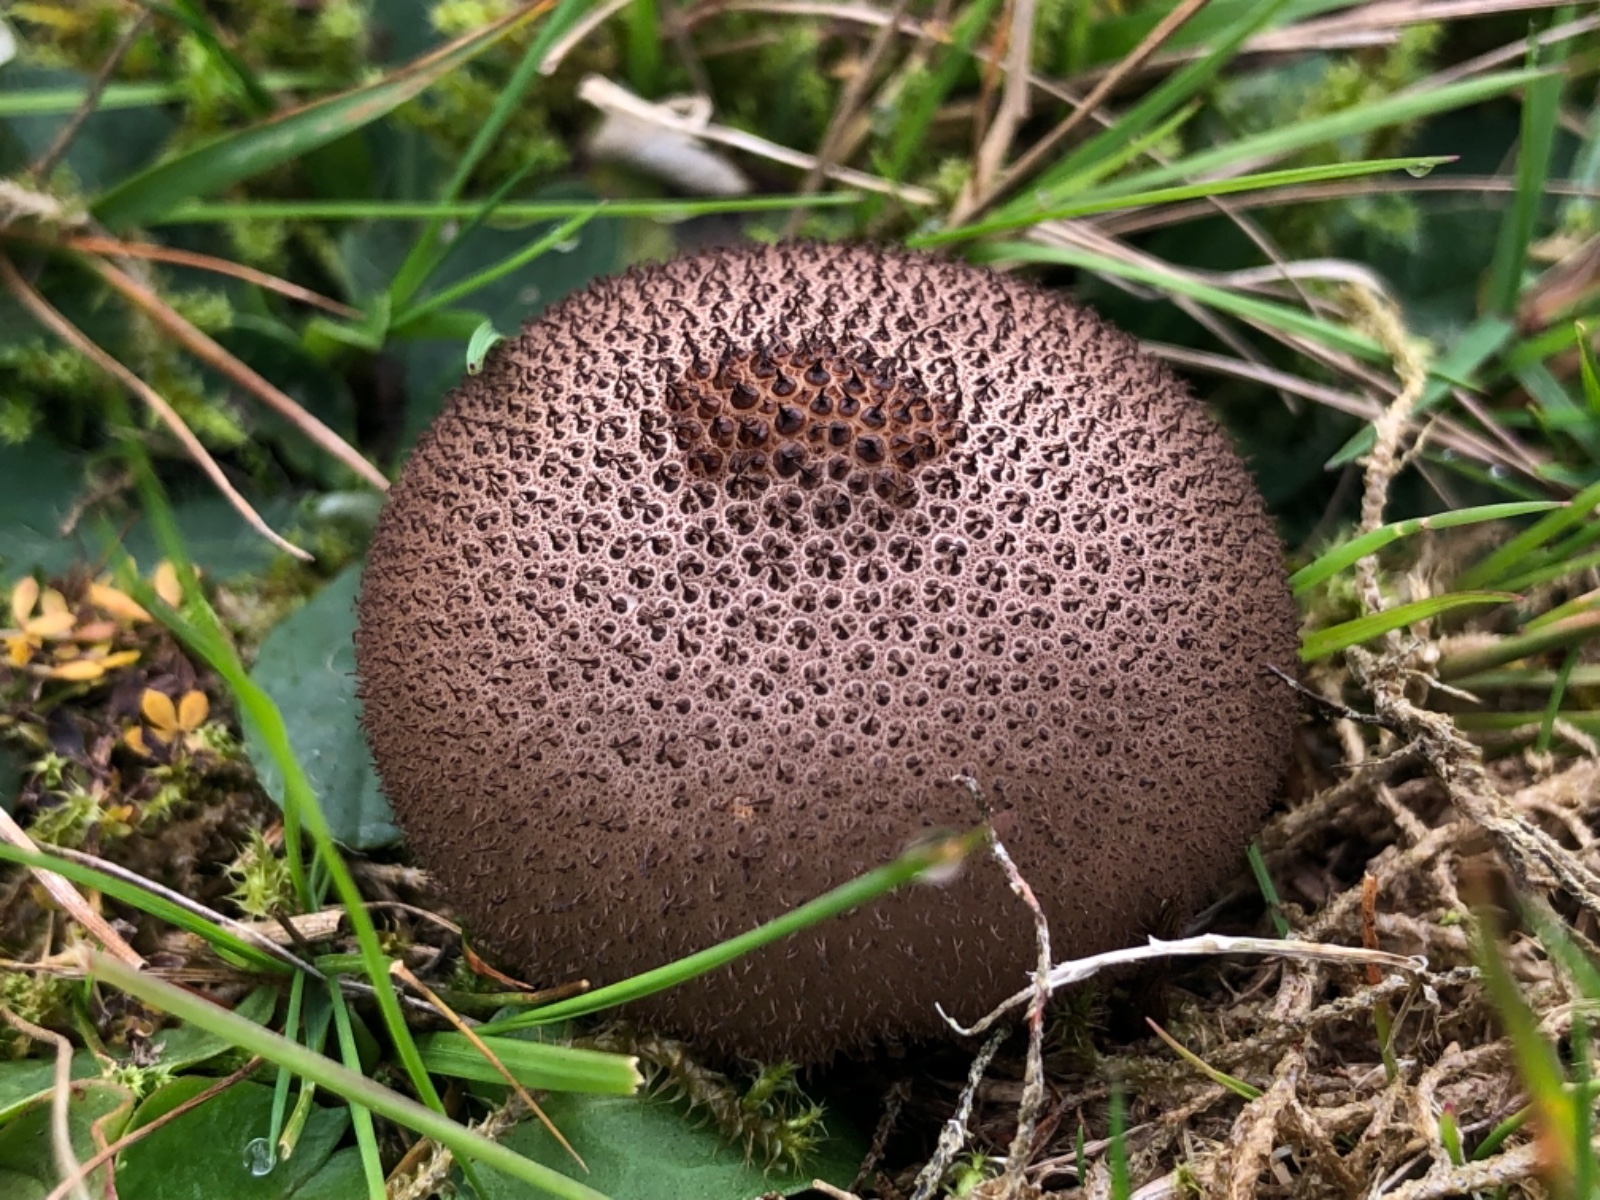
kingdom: Fungi
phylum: Basidiomycota
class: Agaricomycetes
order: Agaricales
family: Lycoperdaceae
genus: Lycoperdon
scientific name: Lycoperdon nigrescens
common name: sortagtig støvbold
